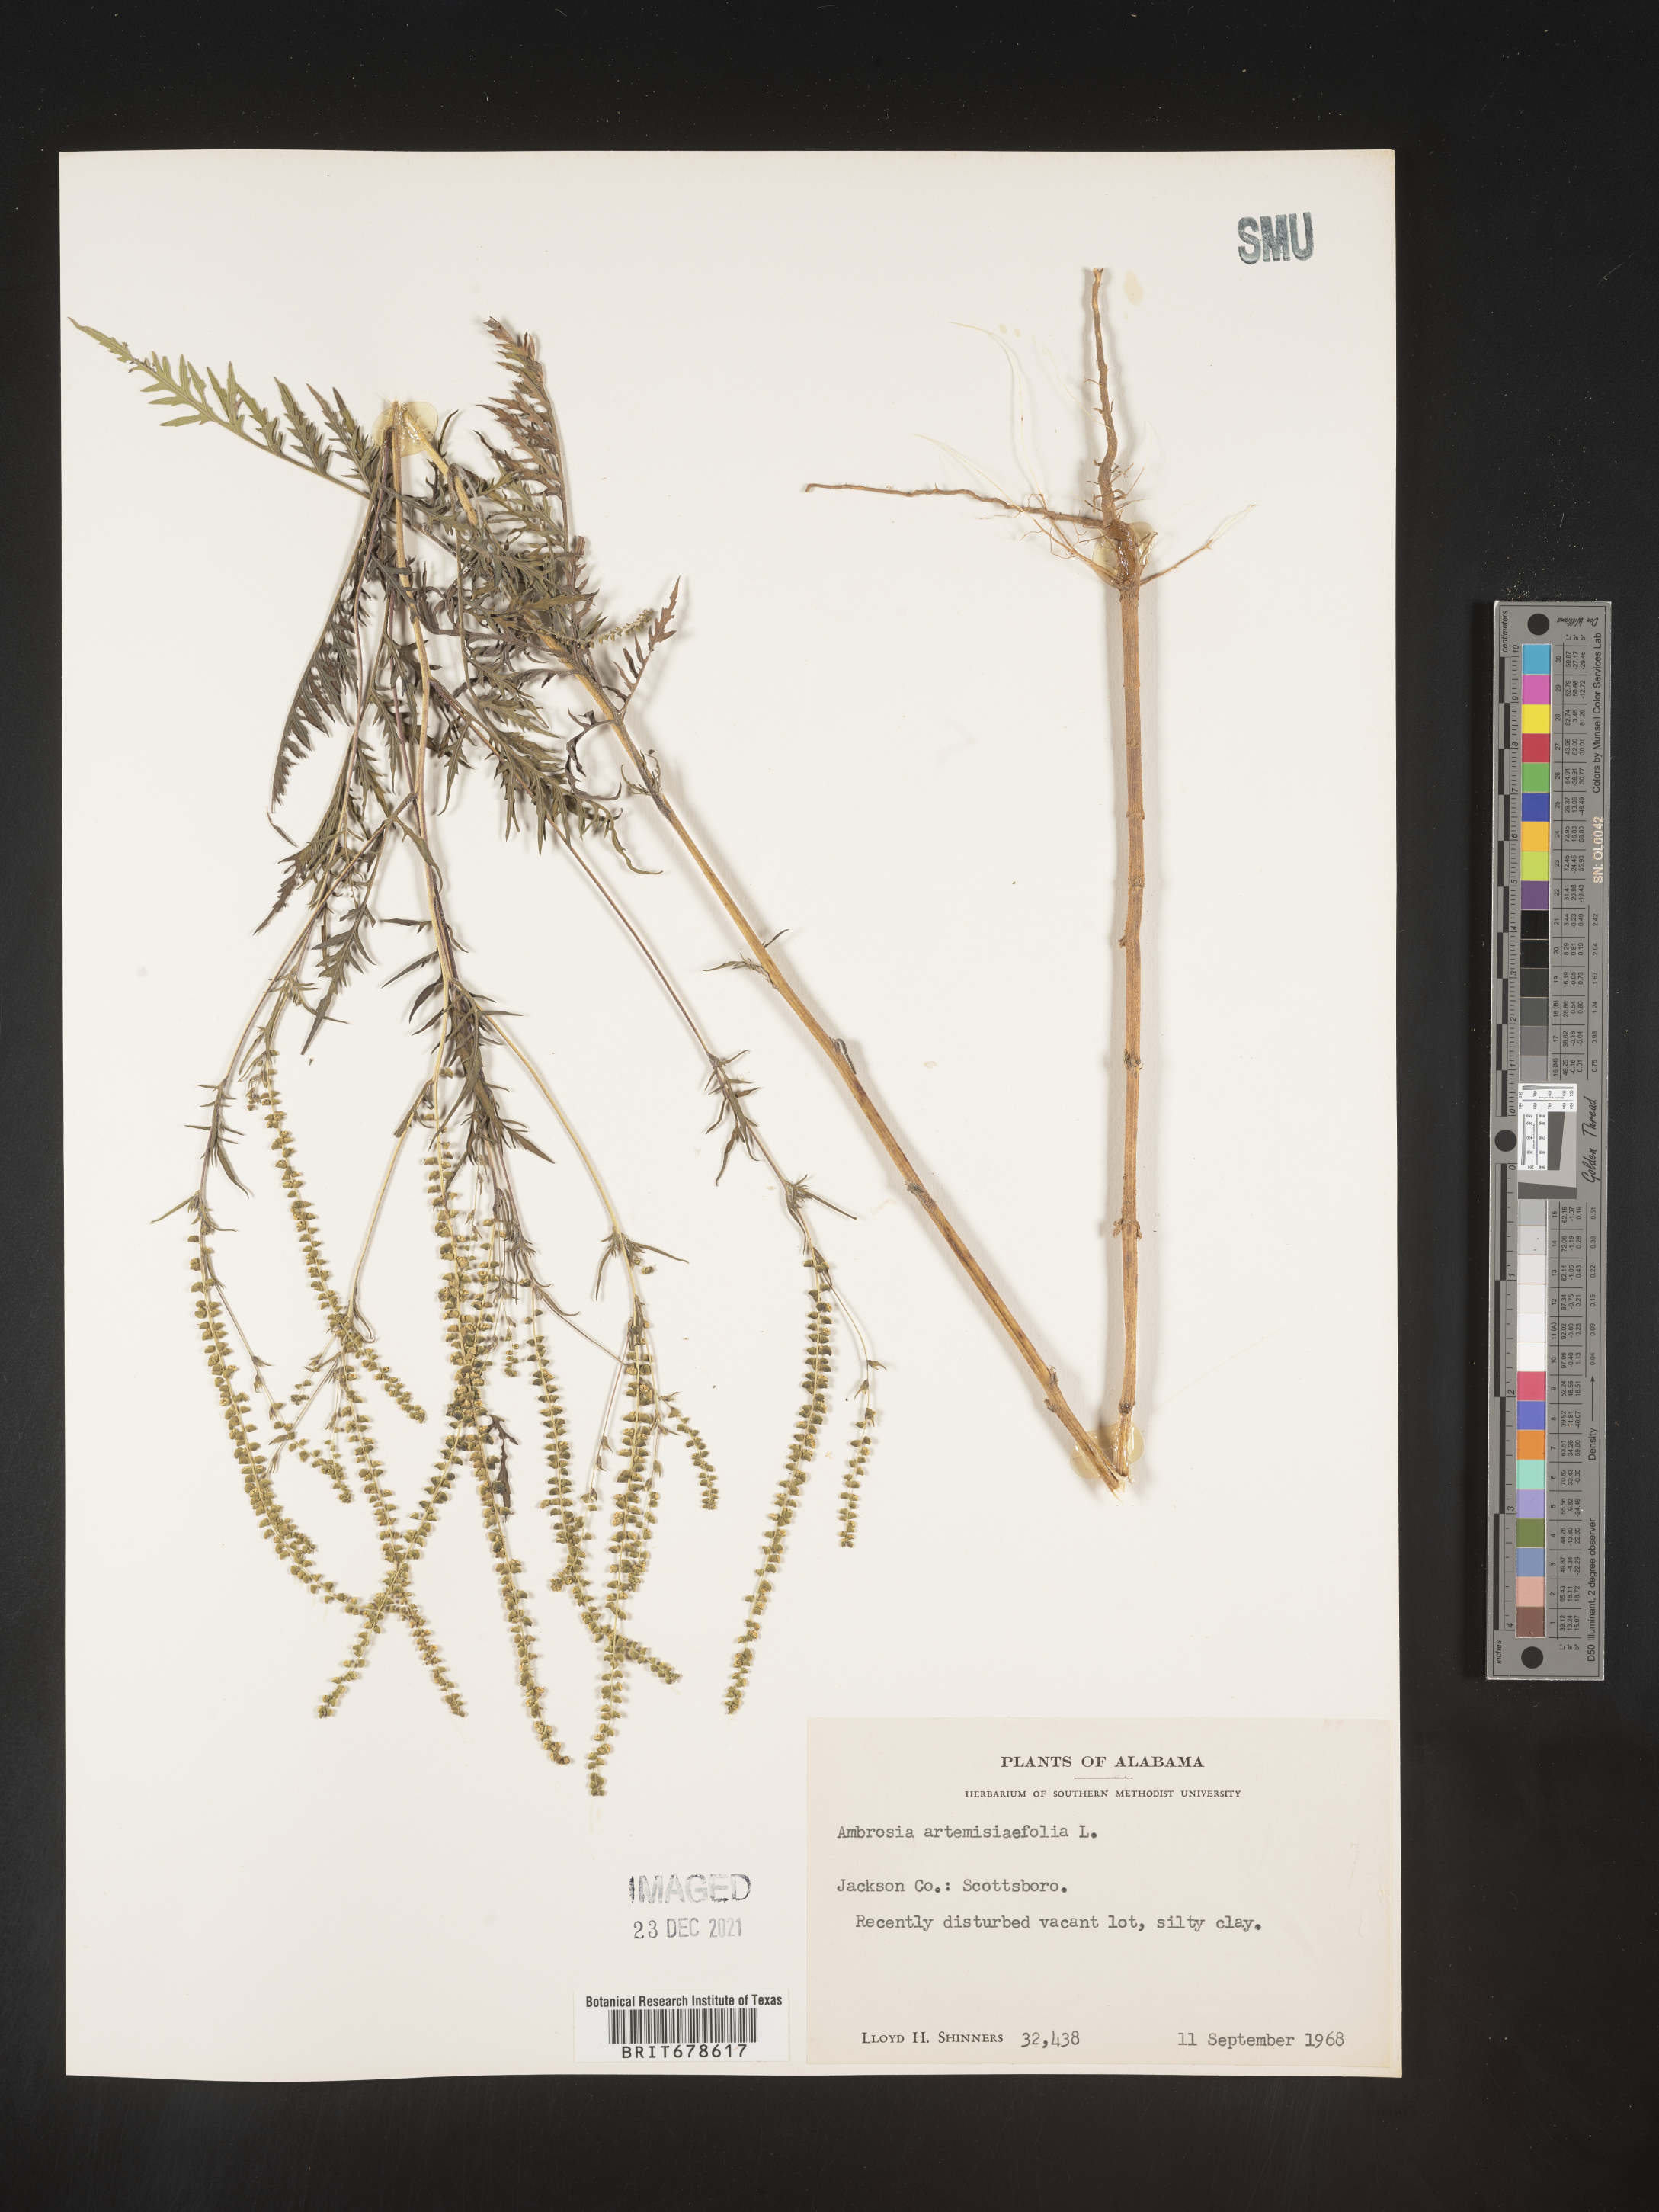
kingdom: Plantae
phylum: Tracheophyta
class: Magnoliopsida
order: Asterales
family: Asteraceae
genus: Ambrosia
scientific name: Ambrosia polystachya
